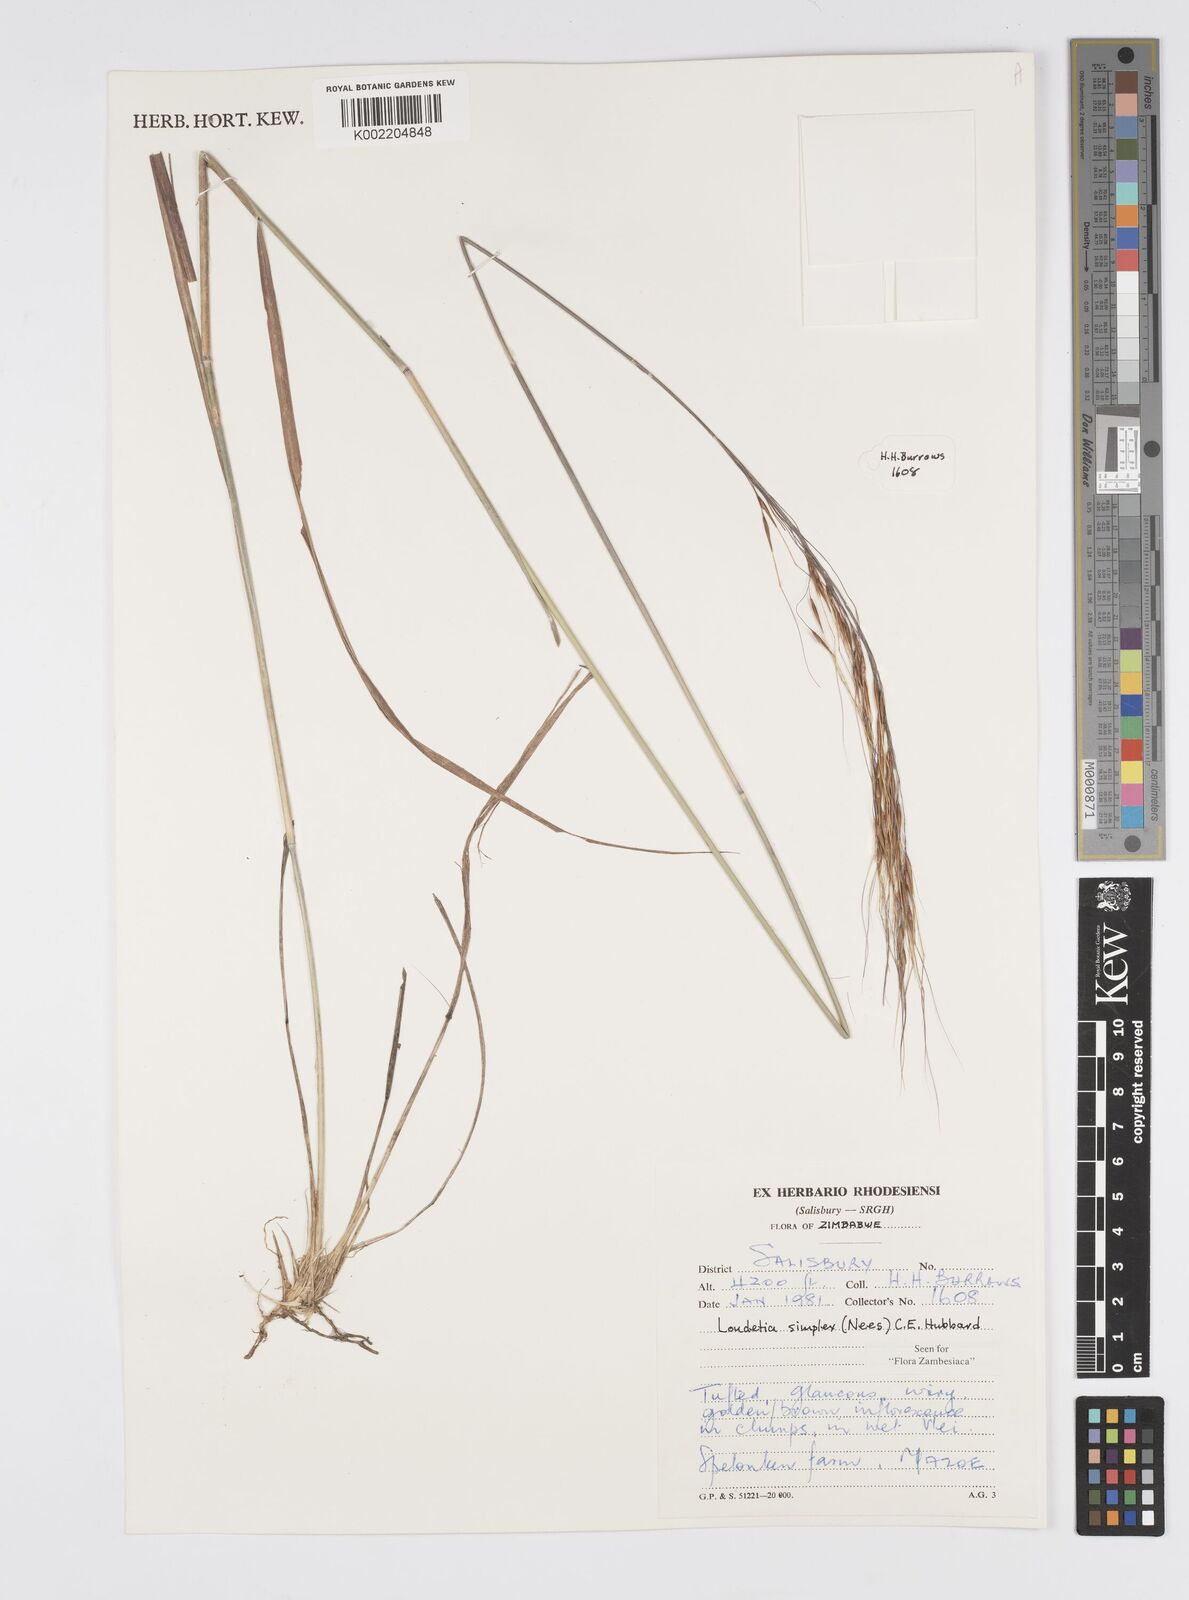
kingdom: Plantae
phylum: Tracheophyta
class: Liliopsida
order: Poales
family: Poaceae
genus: Loudetia
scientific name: Loudetia simplex
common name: Common russet grass
